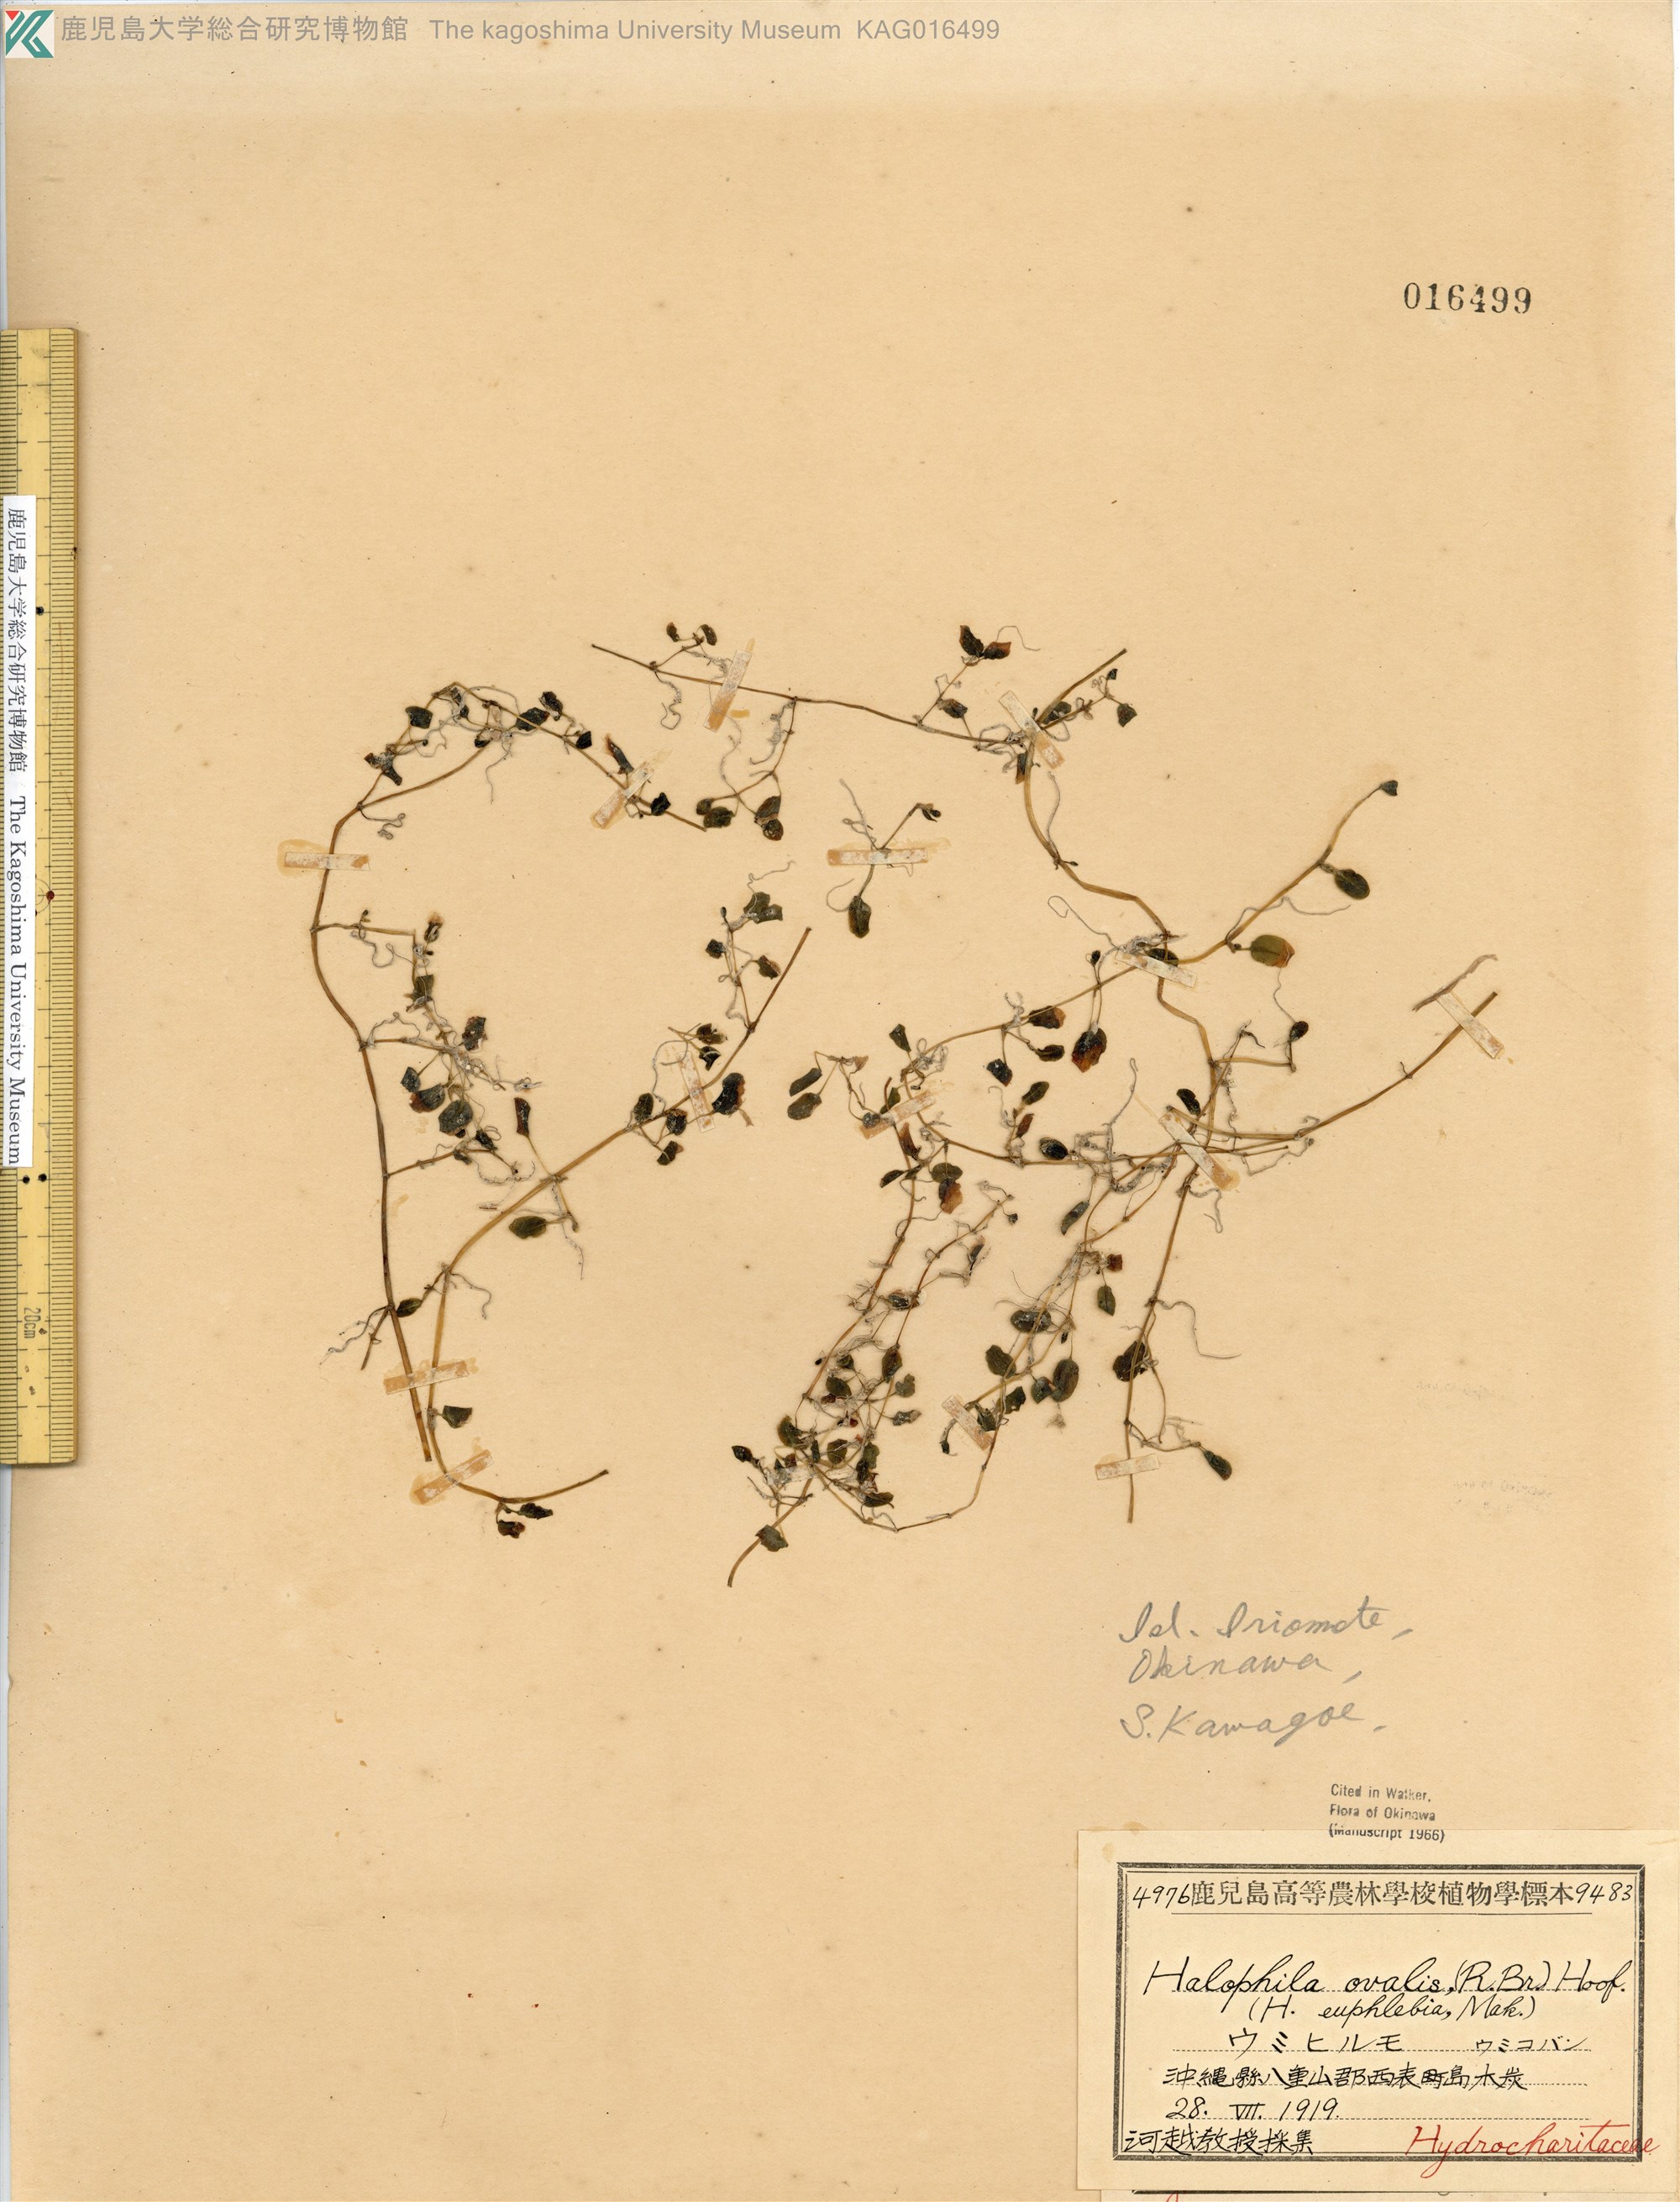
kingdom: Plantae
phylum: Tracheophyta
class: Liliopsida
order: Alismatales
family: Hydrocharitaceae
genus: Halophila
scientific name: Halophila ovalis
